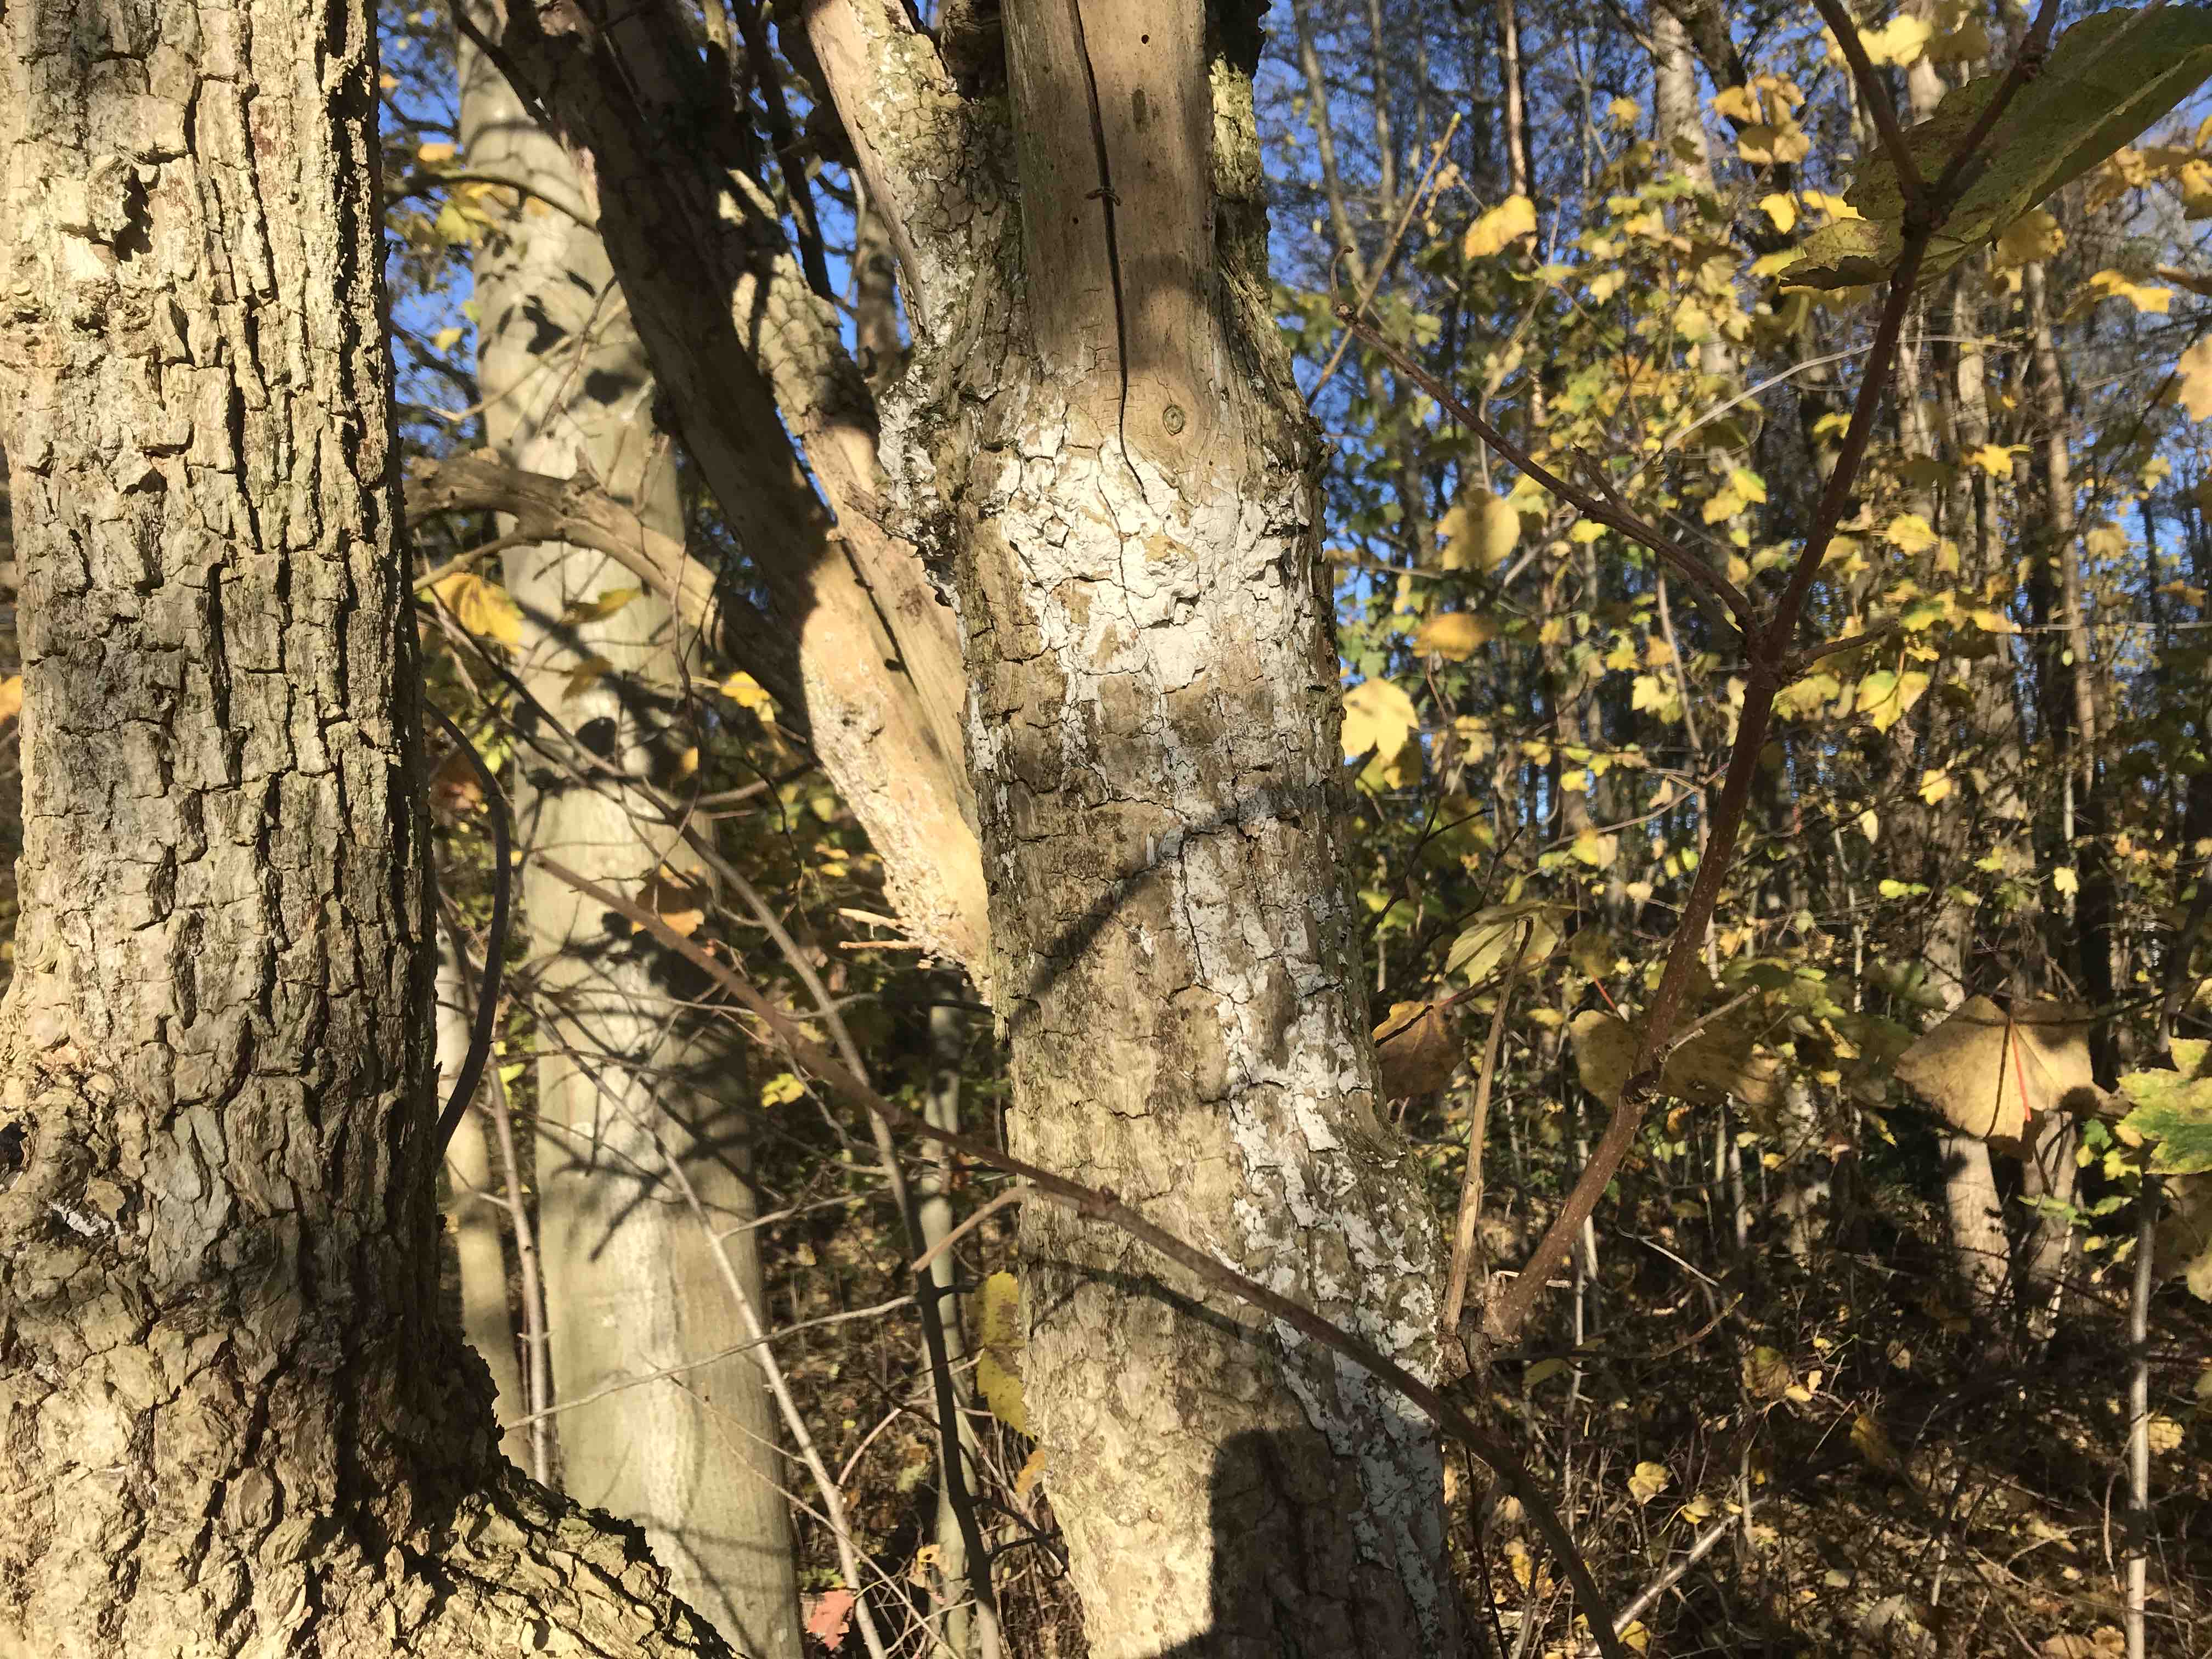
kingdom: Fungi
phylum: Basidiomycota
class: Agaricomycetes
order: Corticiales
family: Corticiaceae
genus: Lyomyces
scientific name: Lyomyces sambuci
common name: almindelig hyldehinde
